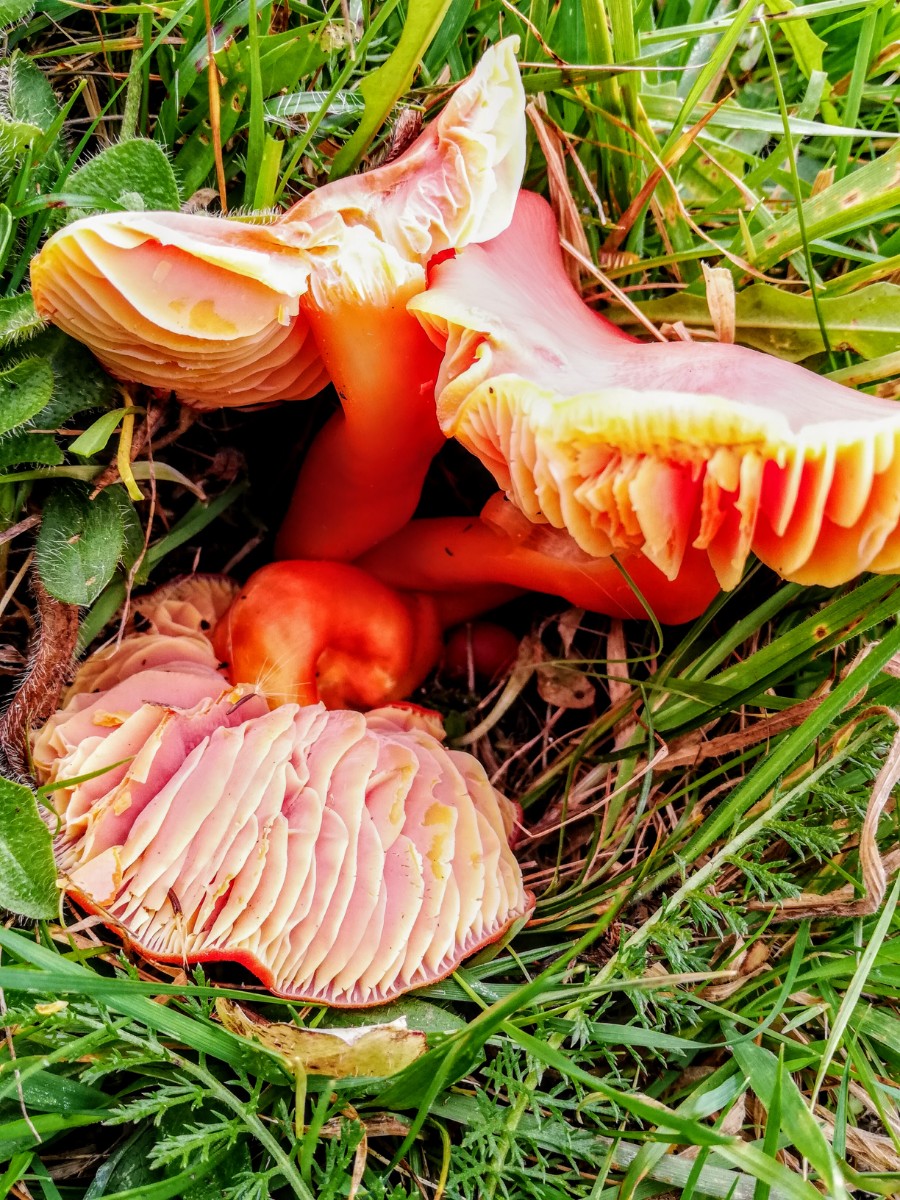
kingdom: Fungi
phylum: Basidiomycota
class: Agaricomycetes
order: Agaricales
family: Hygrophoraceae
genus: Hygrocybe
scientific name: Hygrocybe splendidissima
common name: knaldrød vokshat
